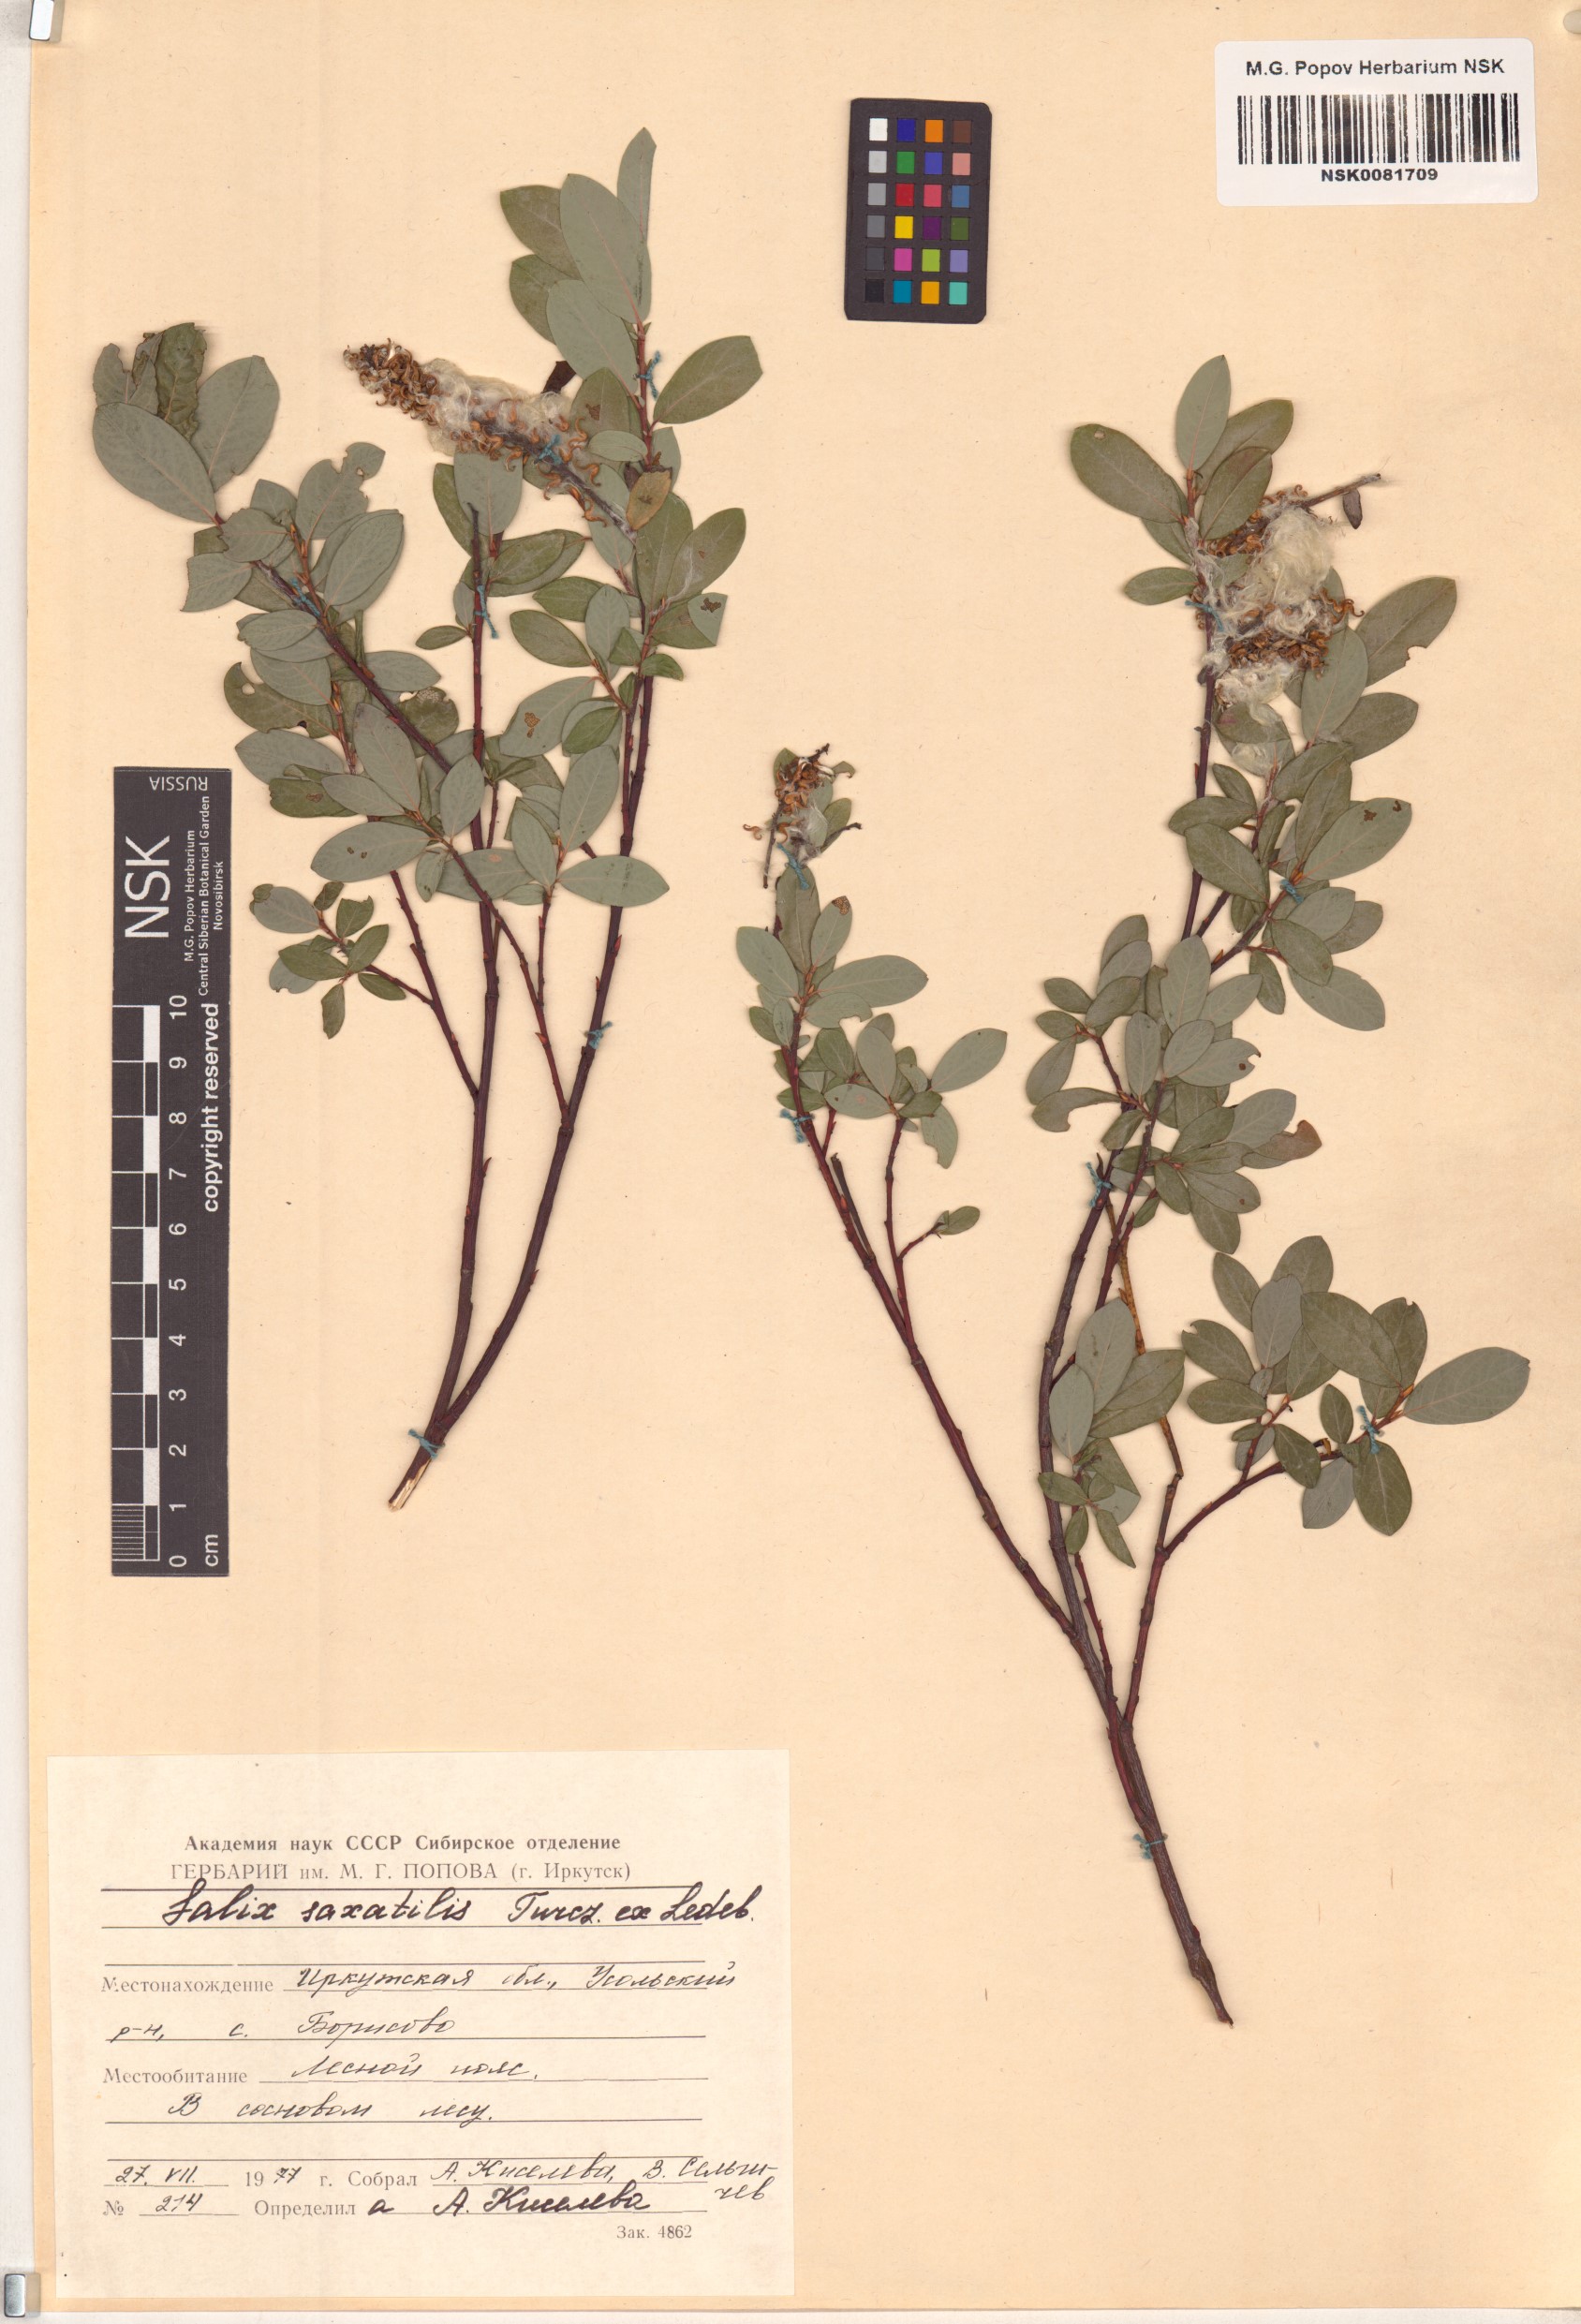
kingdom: Plantae
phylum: Tracheophyta
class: Magnoliopsida
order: Malpighiales
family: Salicaceae
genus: Salix
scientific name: Salix saxatilis
